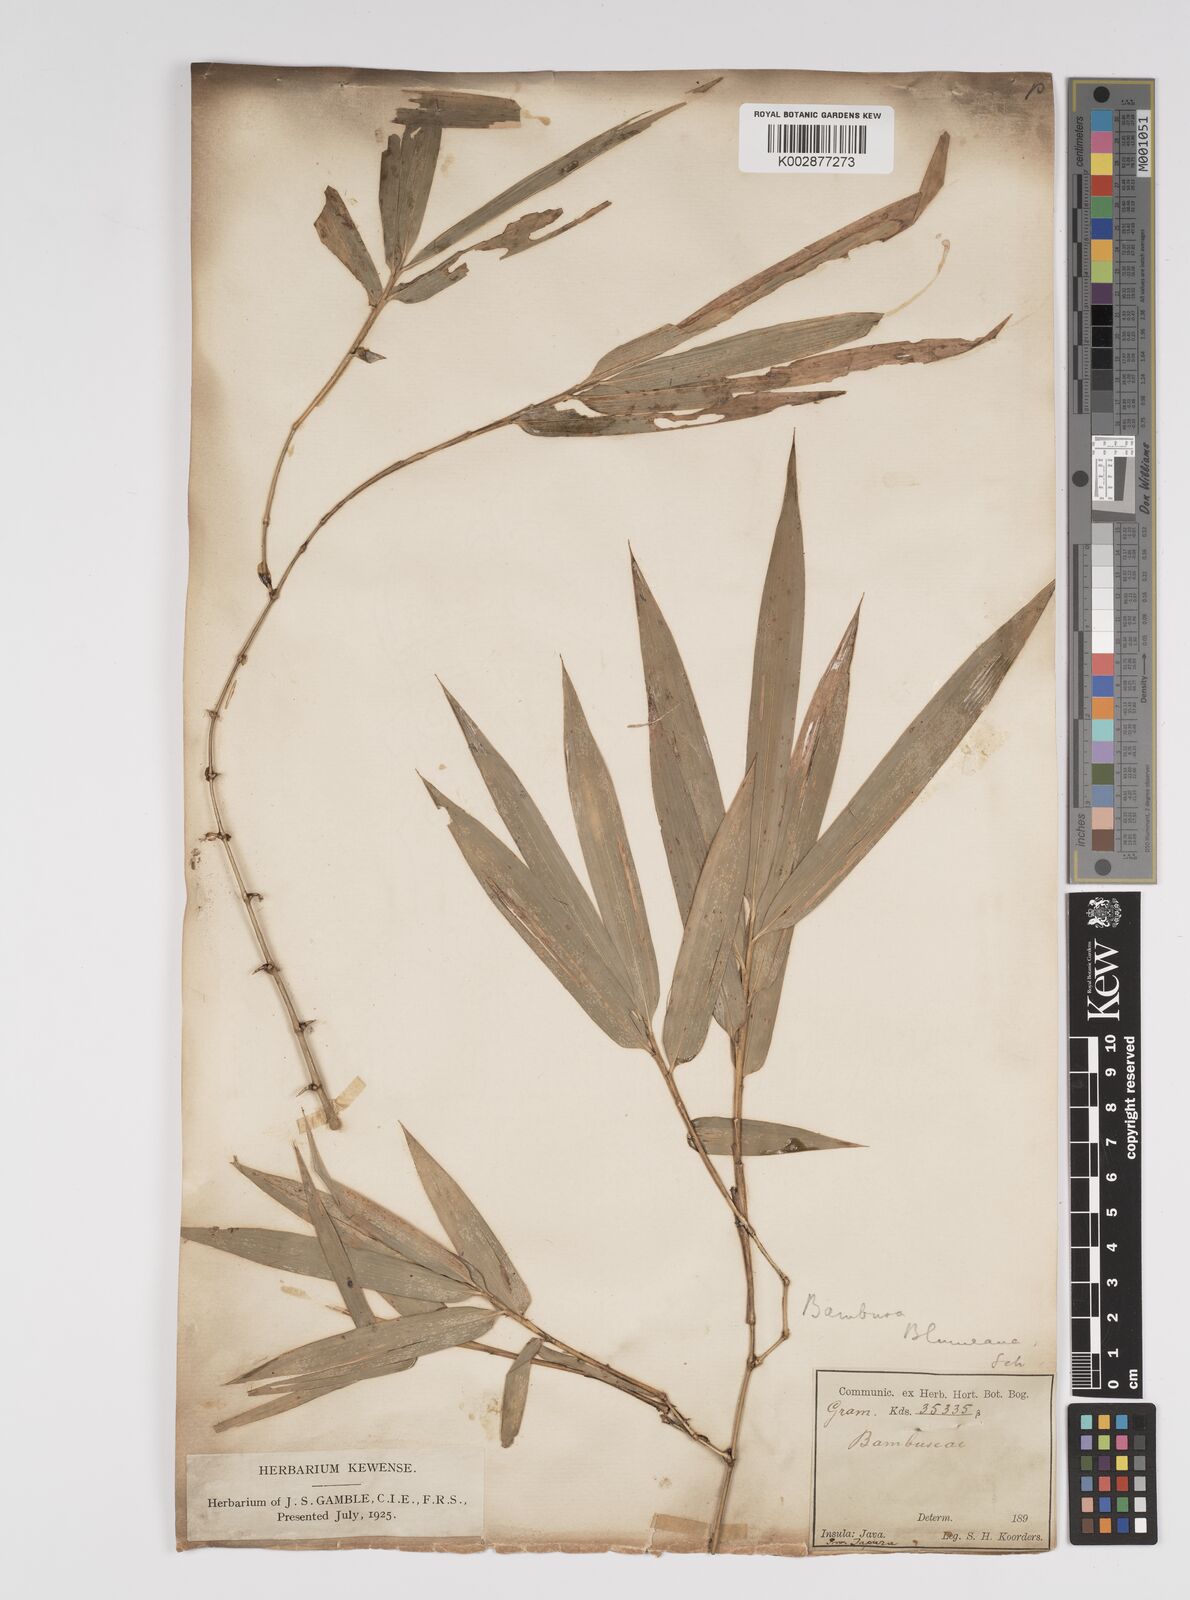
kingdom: Plantae
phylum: Tracheophyta
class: Liliopsida
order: Poales
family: Poaceae
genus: Bambusa
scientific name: Bambusa spinosa
